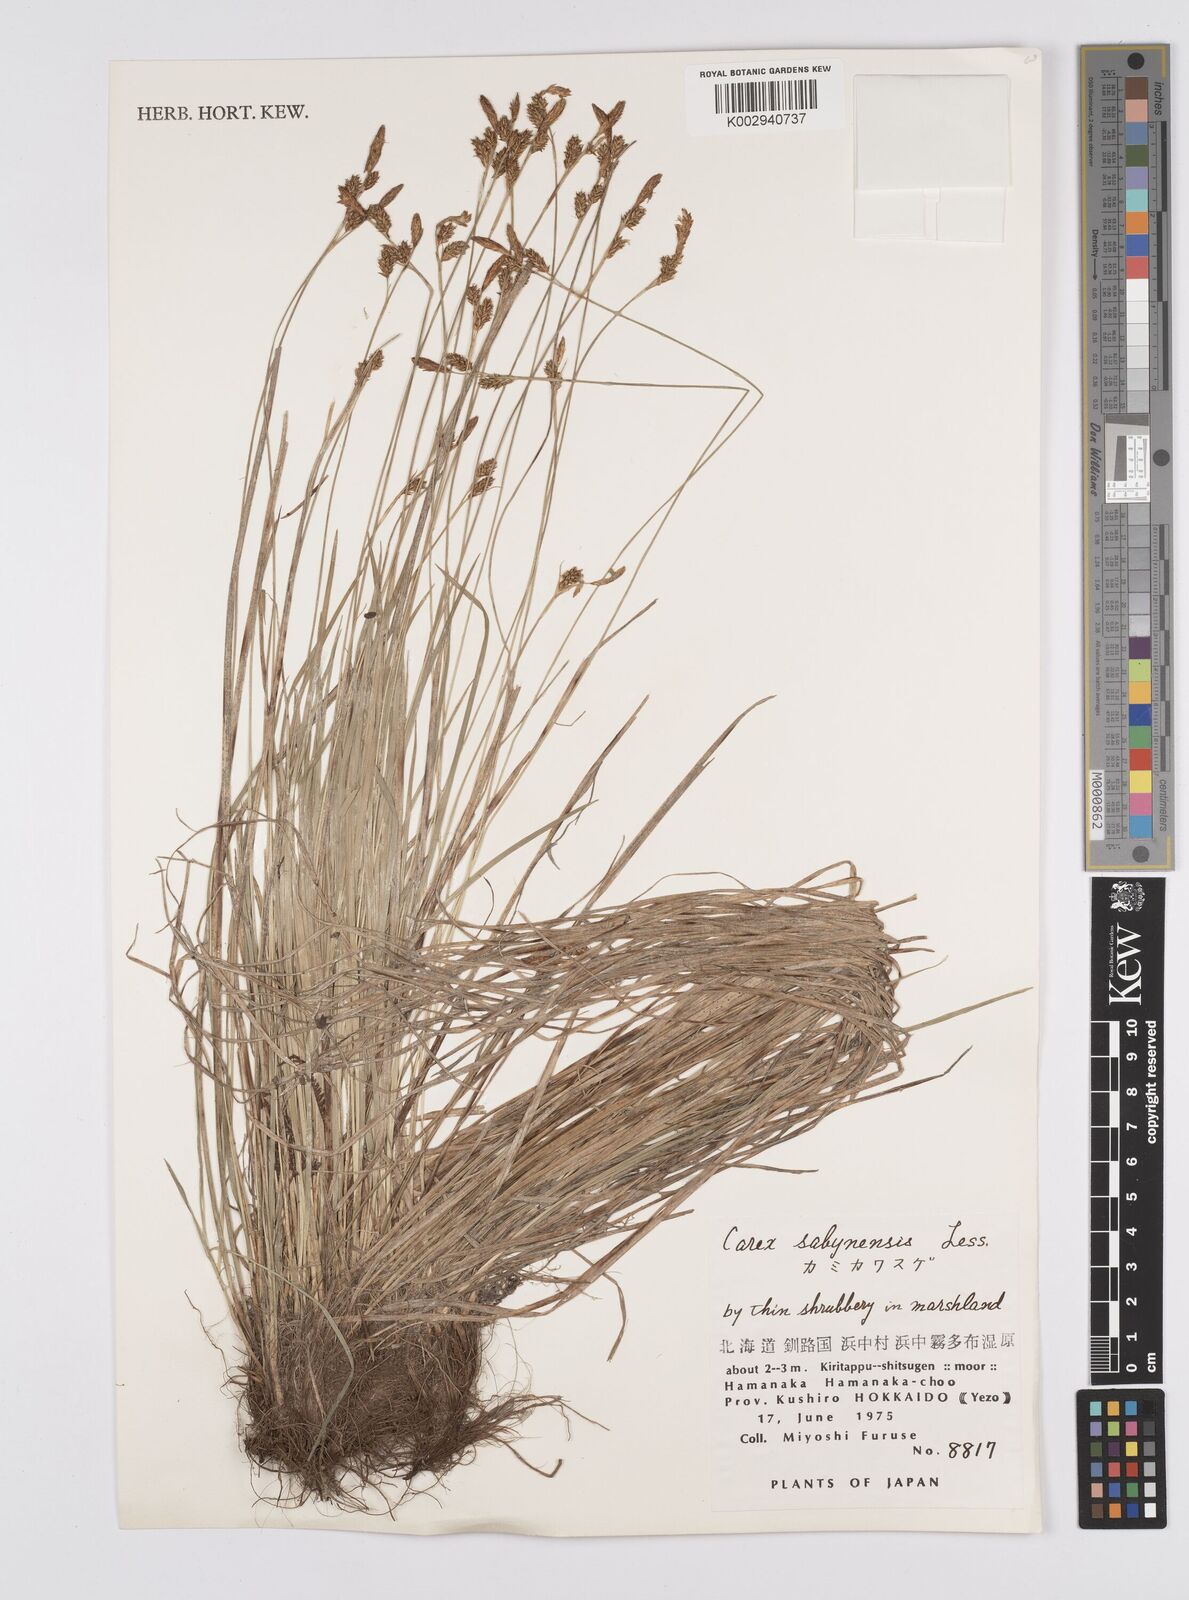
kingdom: Plantae
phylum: Tracheophyta
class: Liliopsida
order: Poales
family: Cyperaceae
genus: Carex
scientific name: Carex umbrosa
